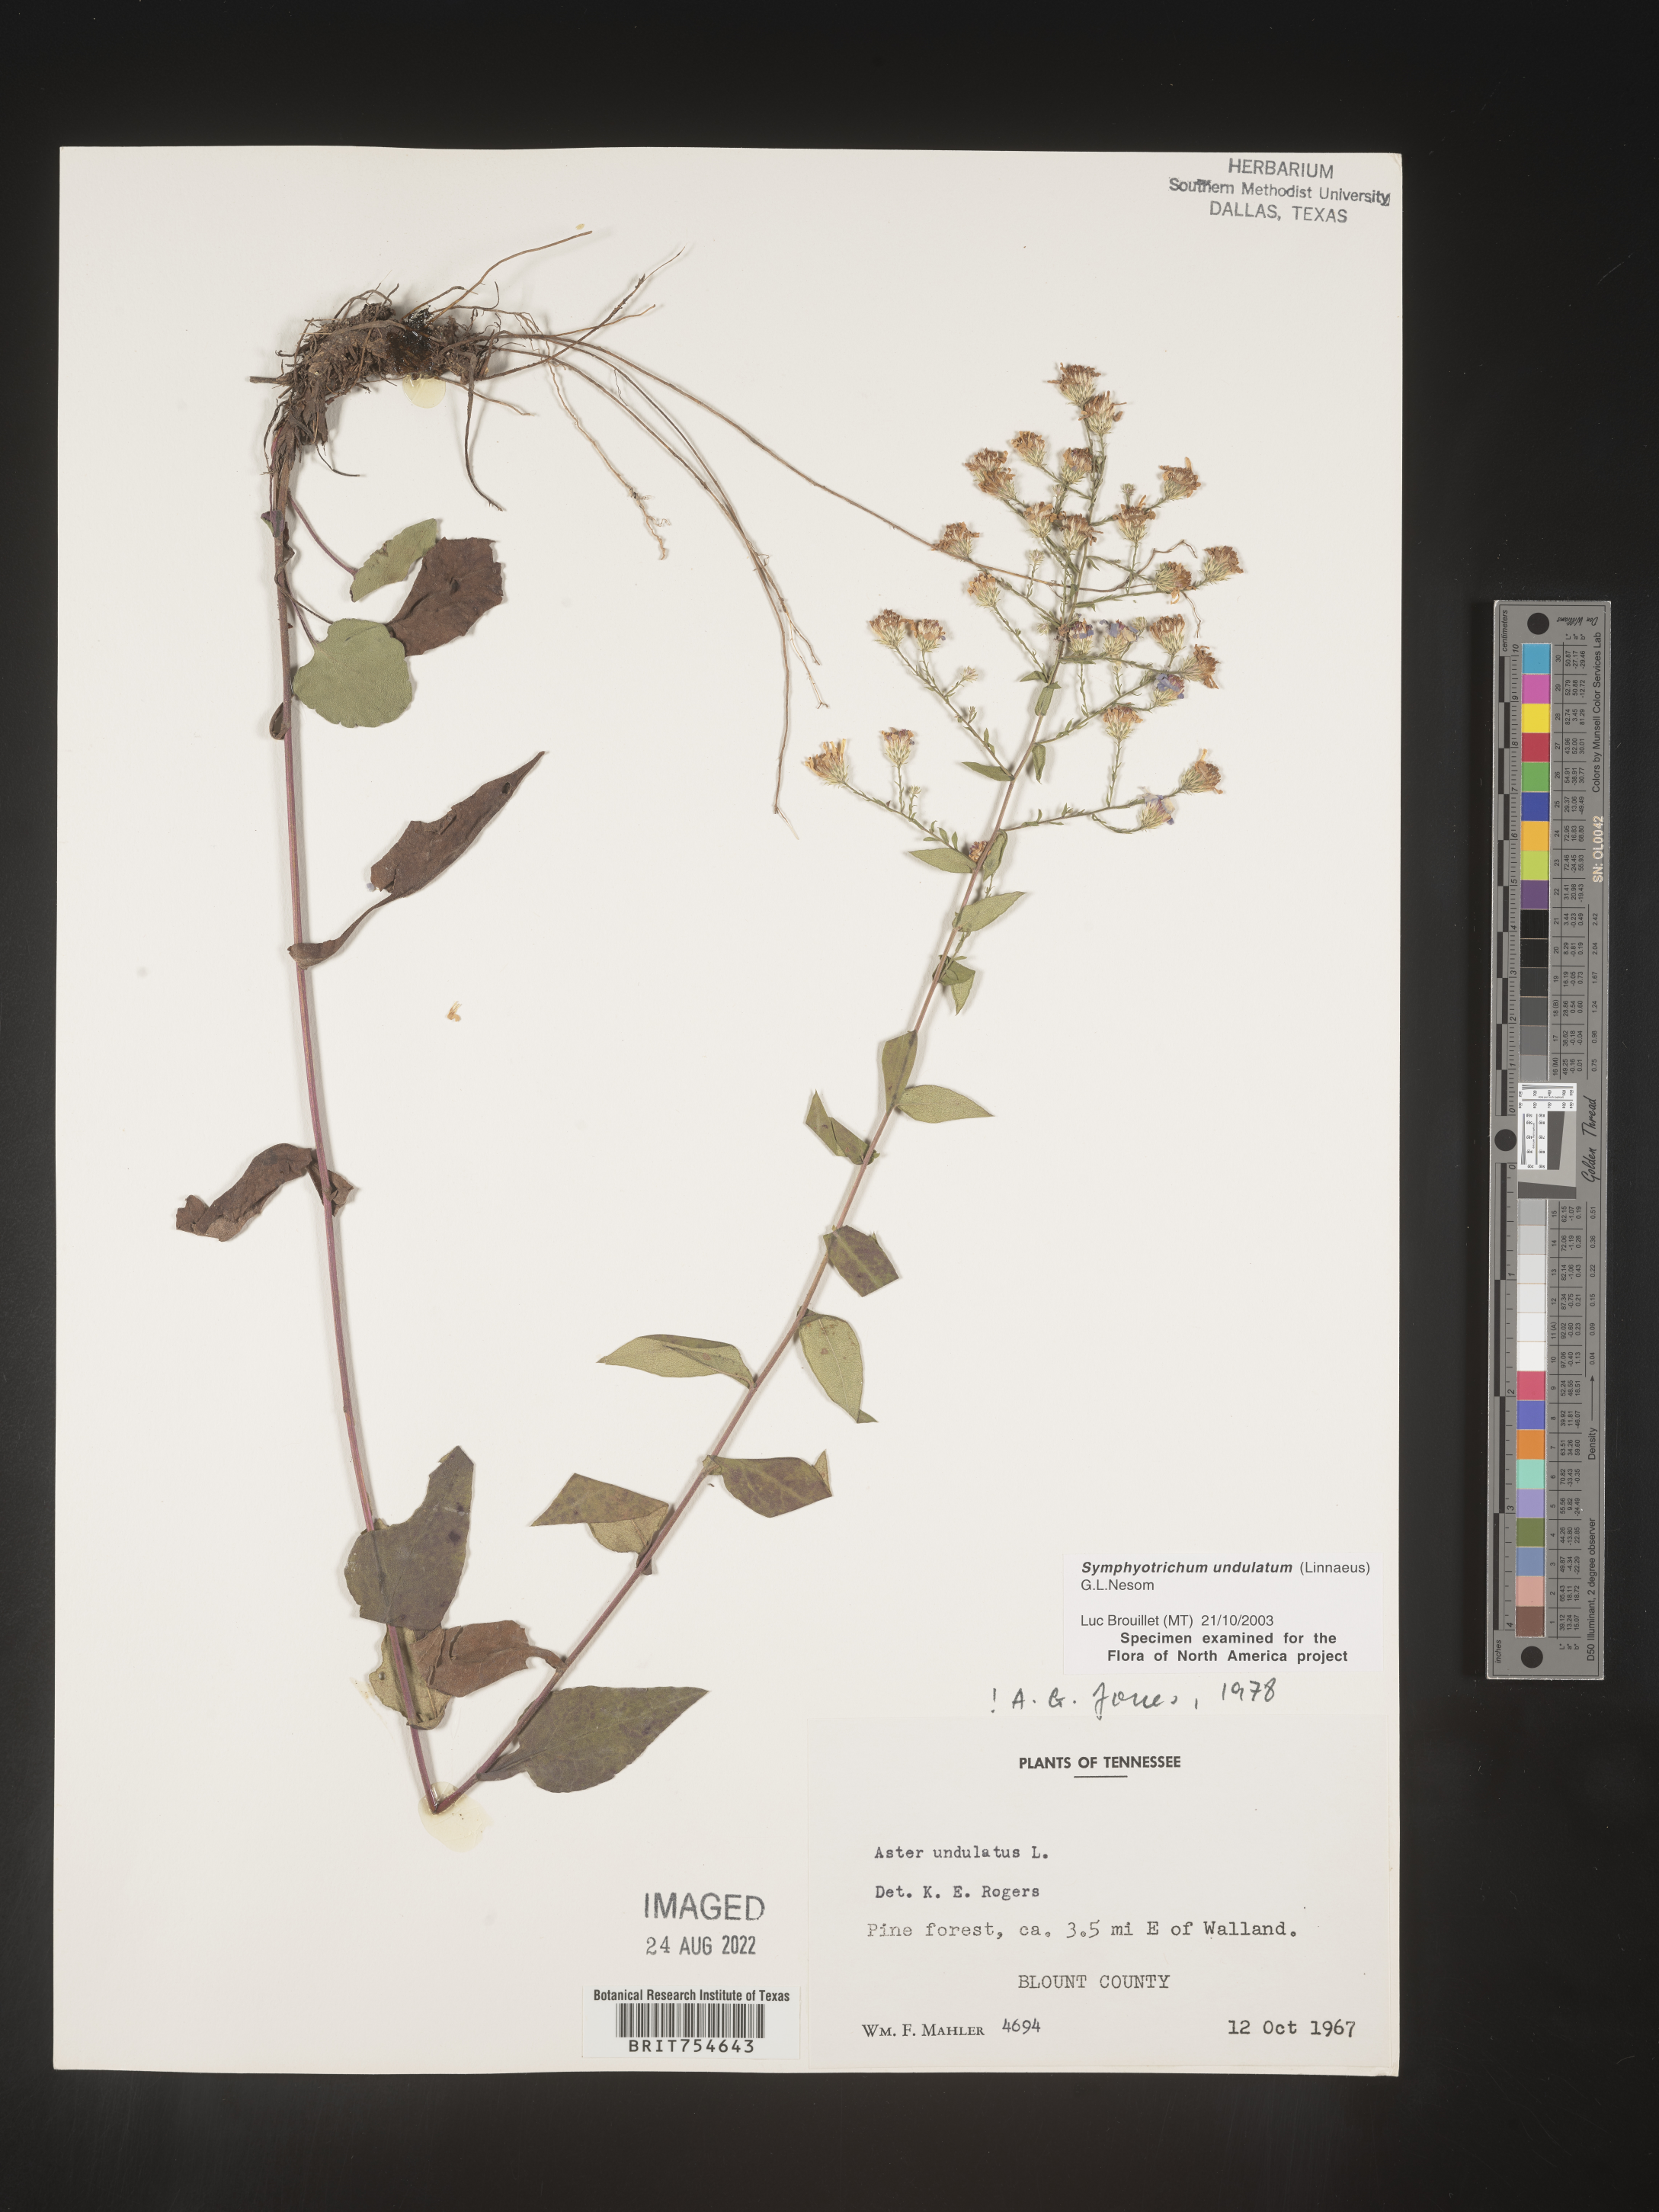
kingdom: Plantae
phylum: Tracheophyta
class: Magnoliopsida
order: Asterales
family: Asteraceae
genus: Symphyotrichum
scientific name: Symphyotrichum undulatum
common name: Clasping heart-leaf aster
